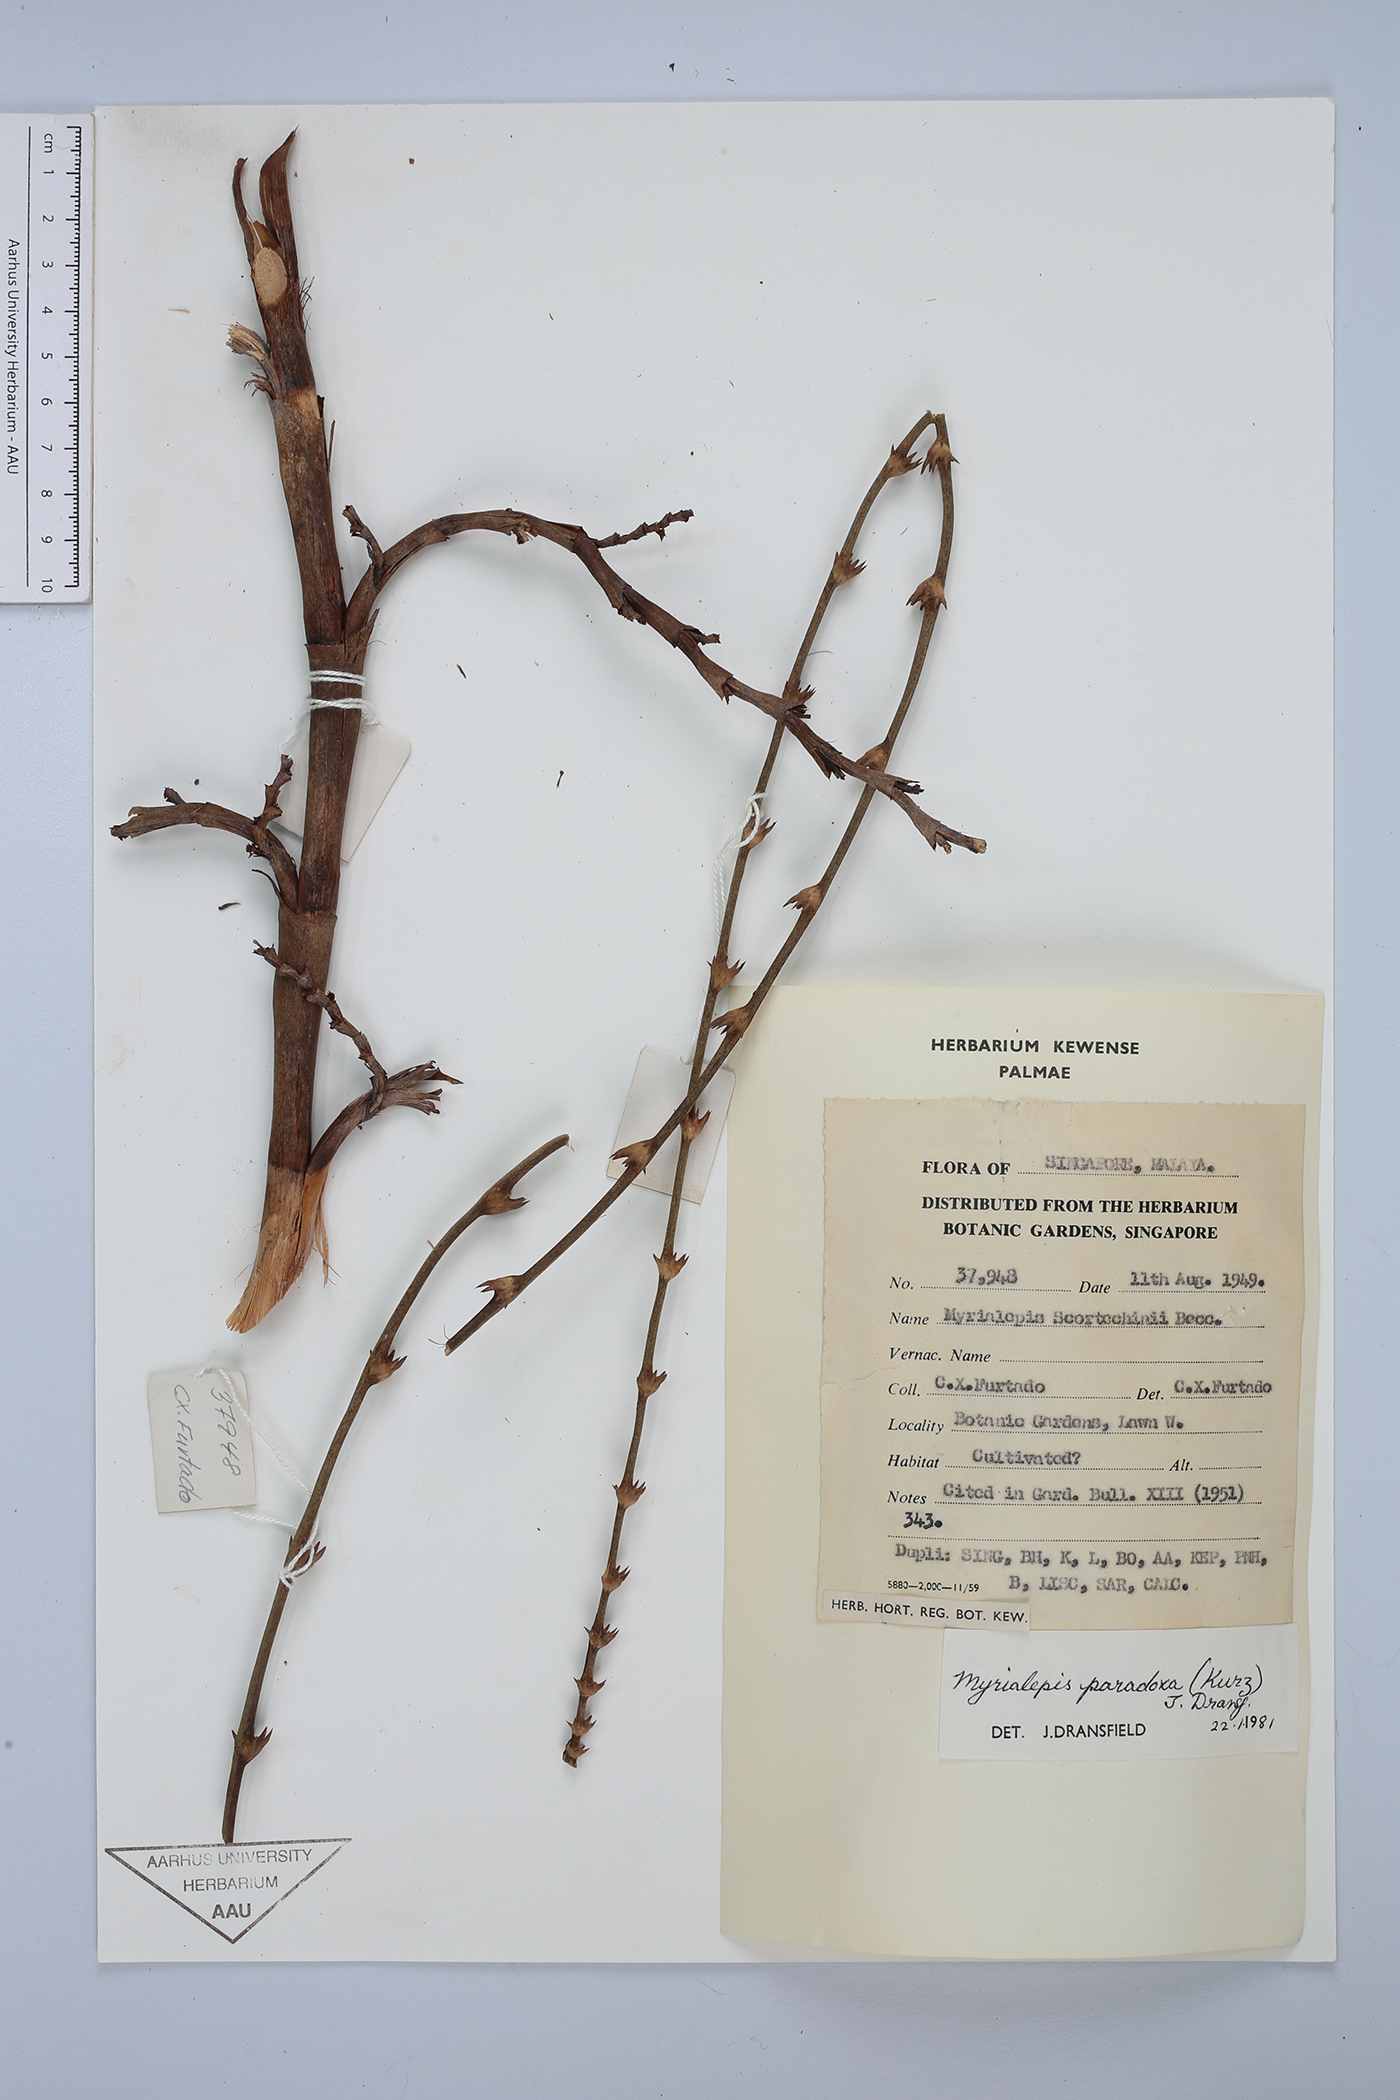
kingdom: Plantae
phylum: Tracheophyta
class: Liliopsida
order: Arecales
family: Arecaceae
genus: Myrialepis
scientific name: Myrialepis paradoxa
